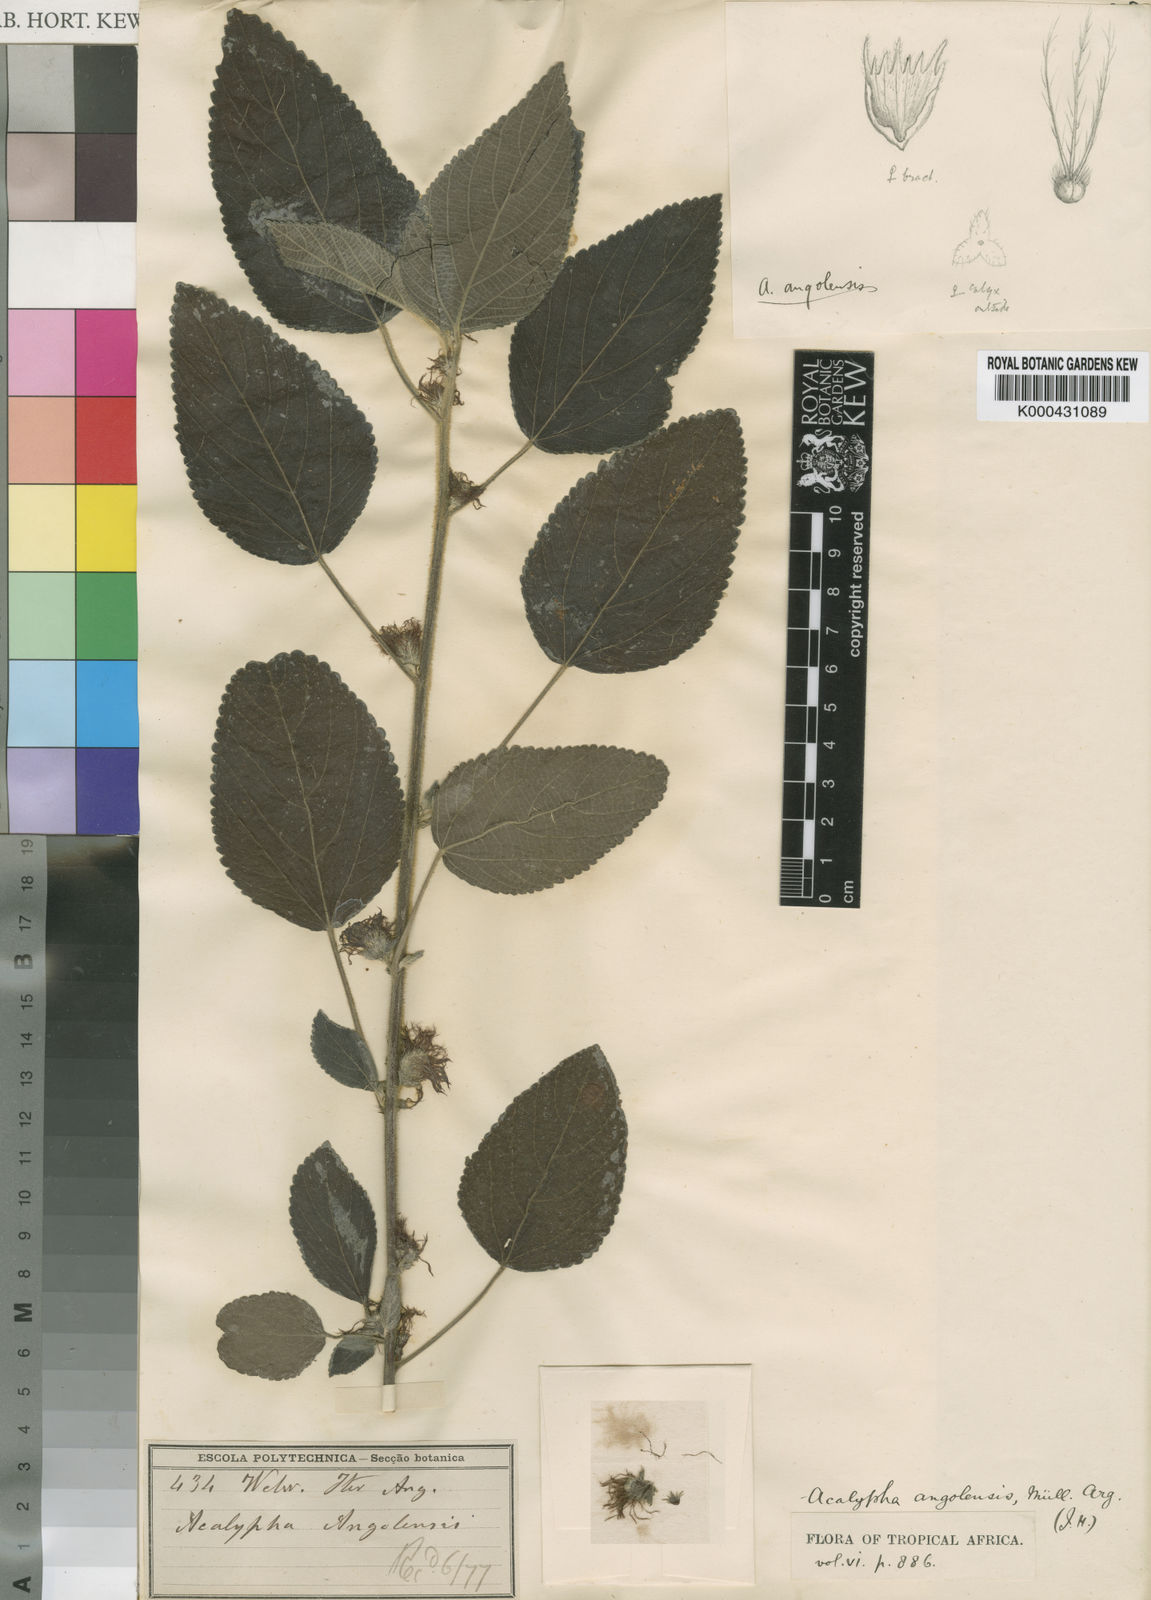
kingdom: Plantae
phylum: Tracheophyta
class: Magnoliopsida
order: Malpighiales
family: Euphorbiaceae
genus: Acalypha
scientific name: Acalypha
